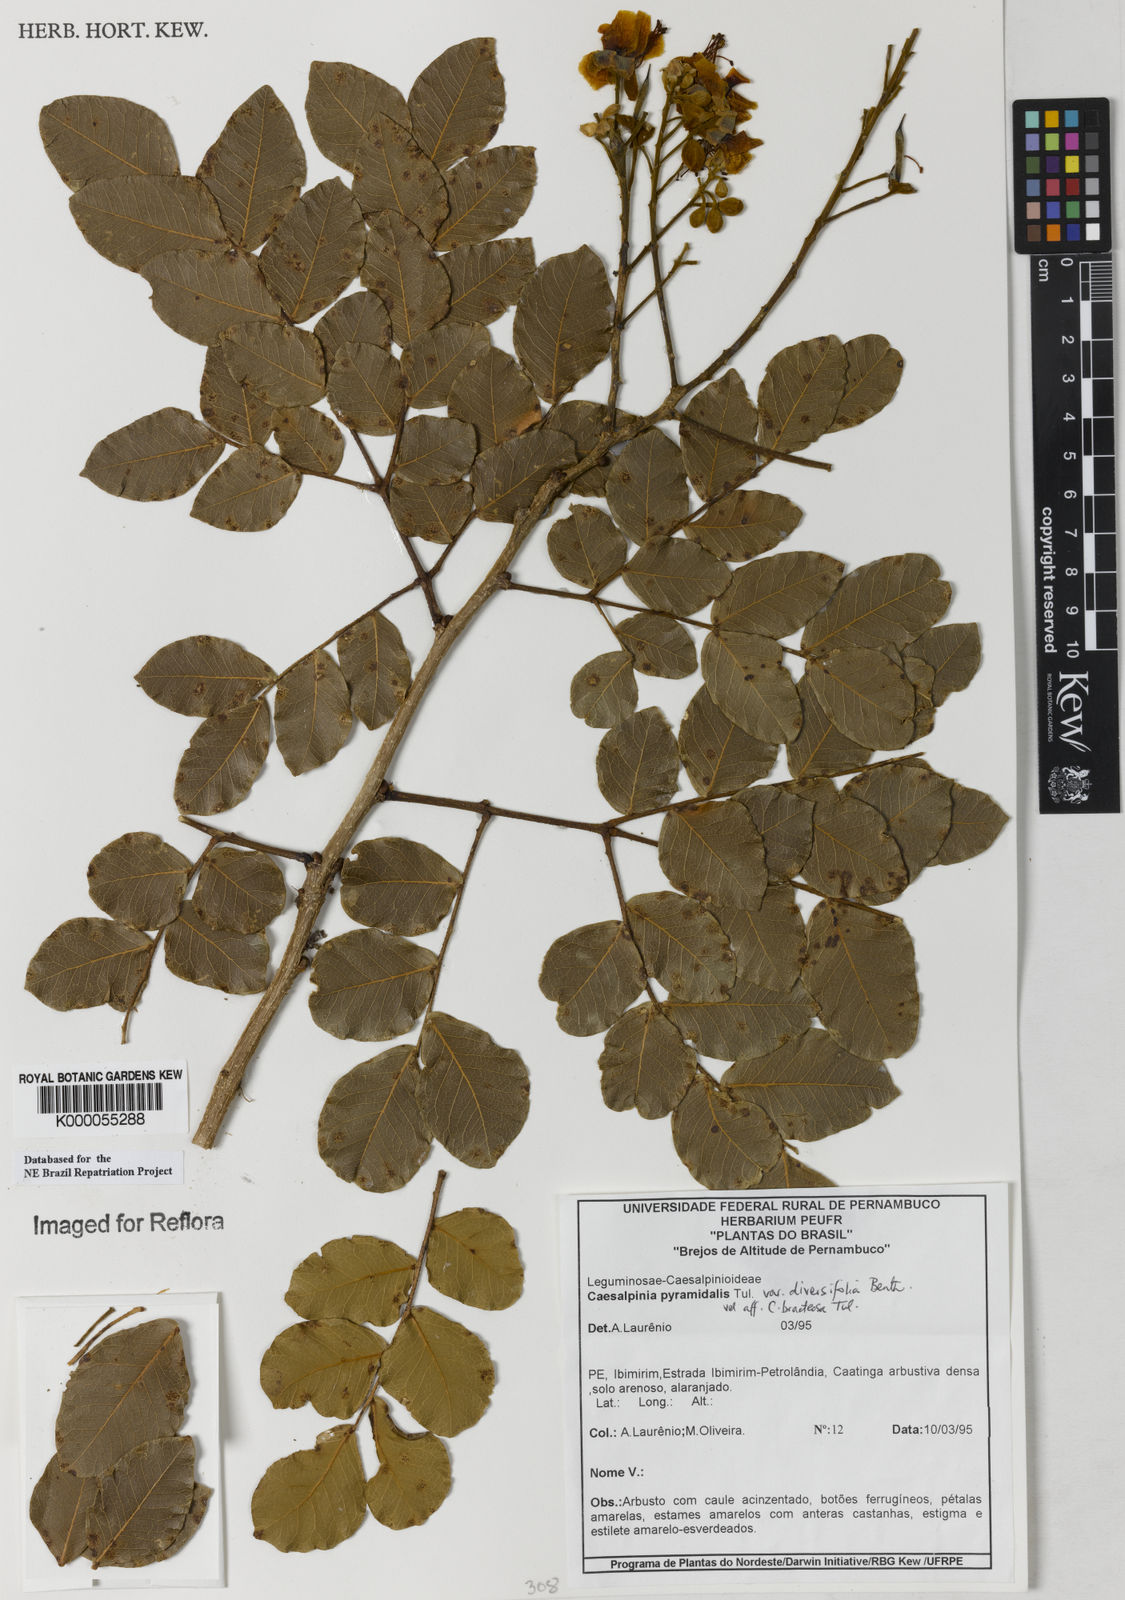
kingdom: Plantae
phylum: Tracheophyta
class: Magnoliopsida
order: Fabales
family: Fabaceae
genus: Cenostigma
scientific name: Cenostigma diversifolium
